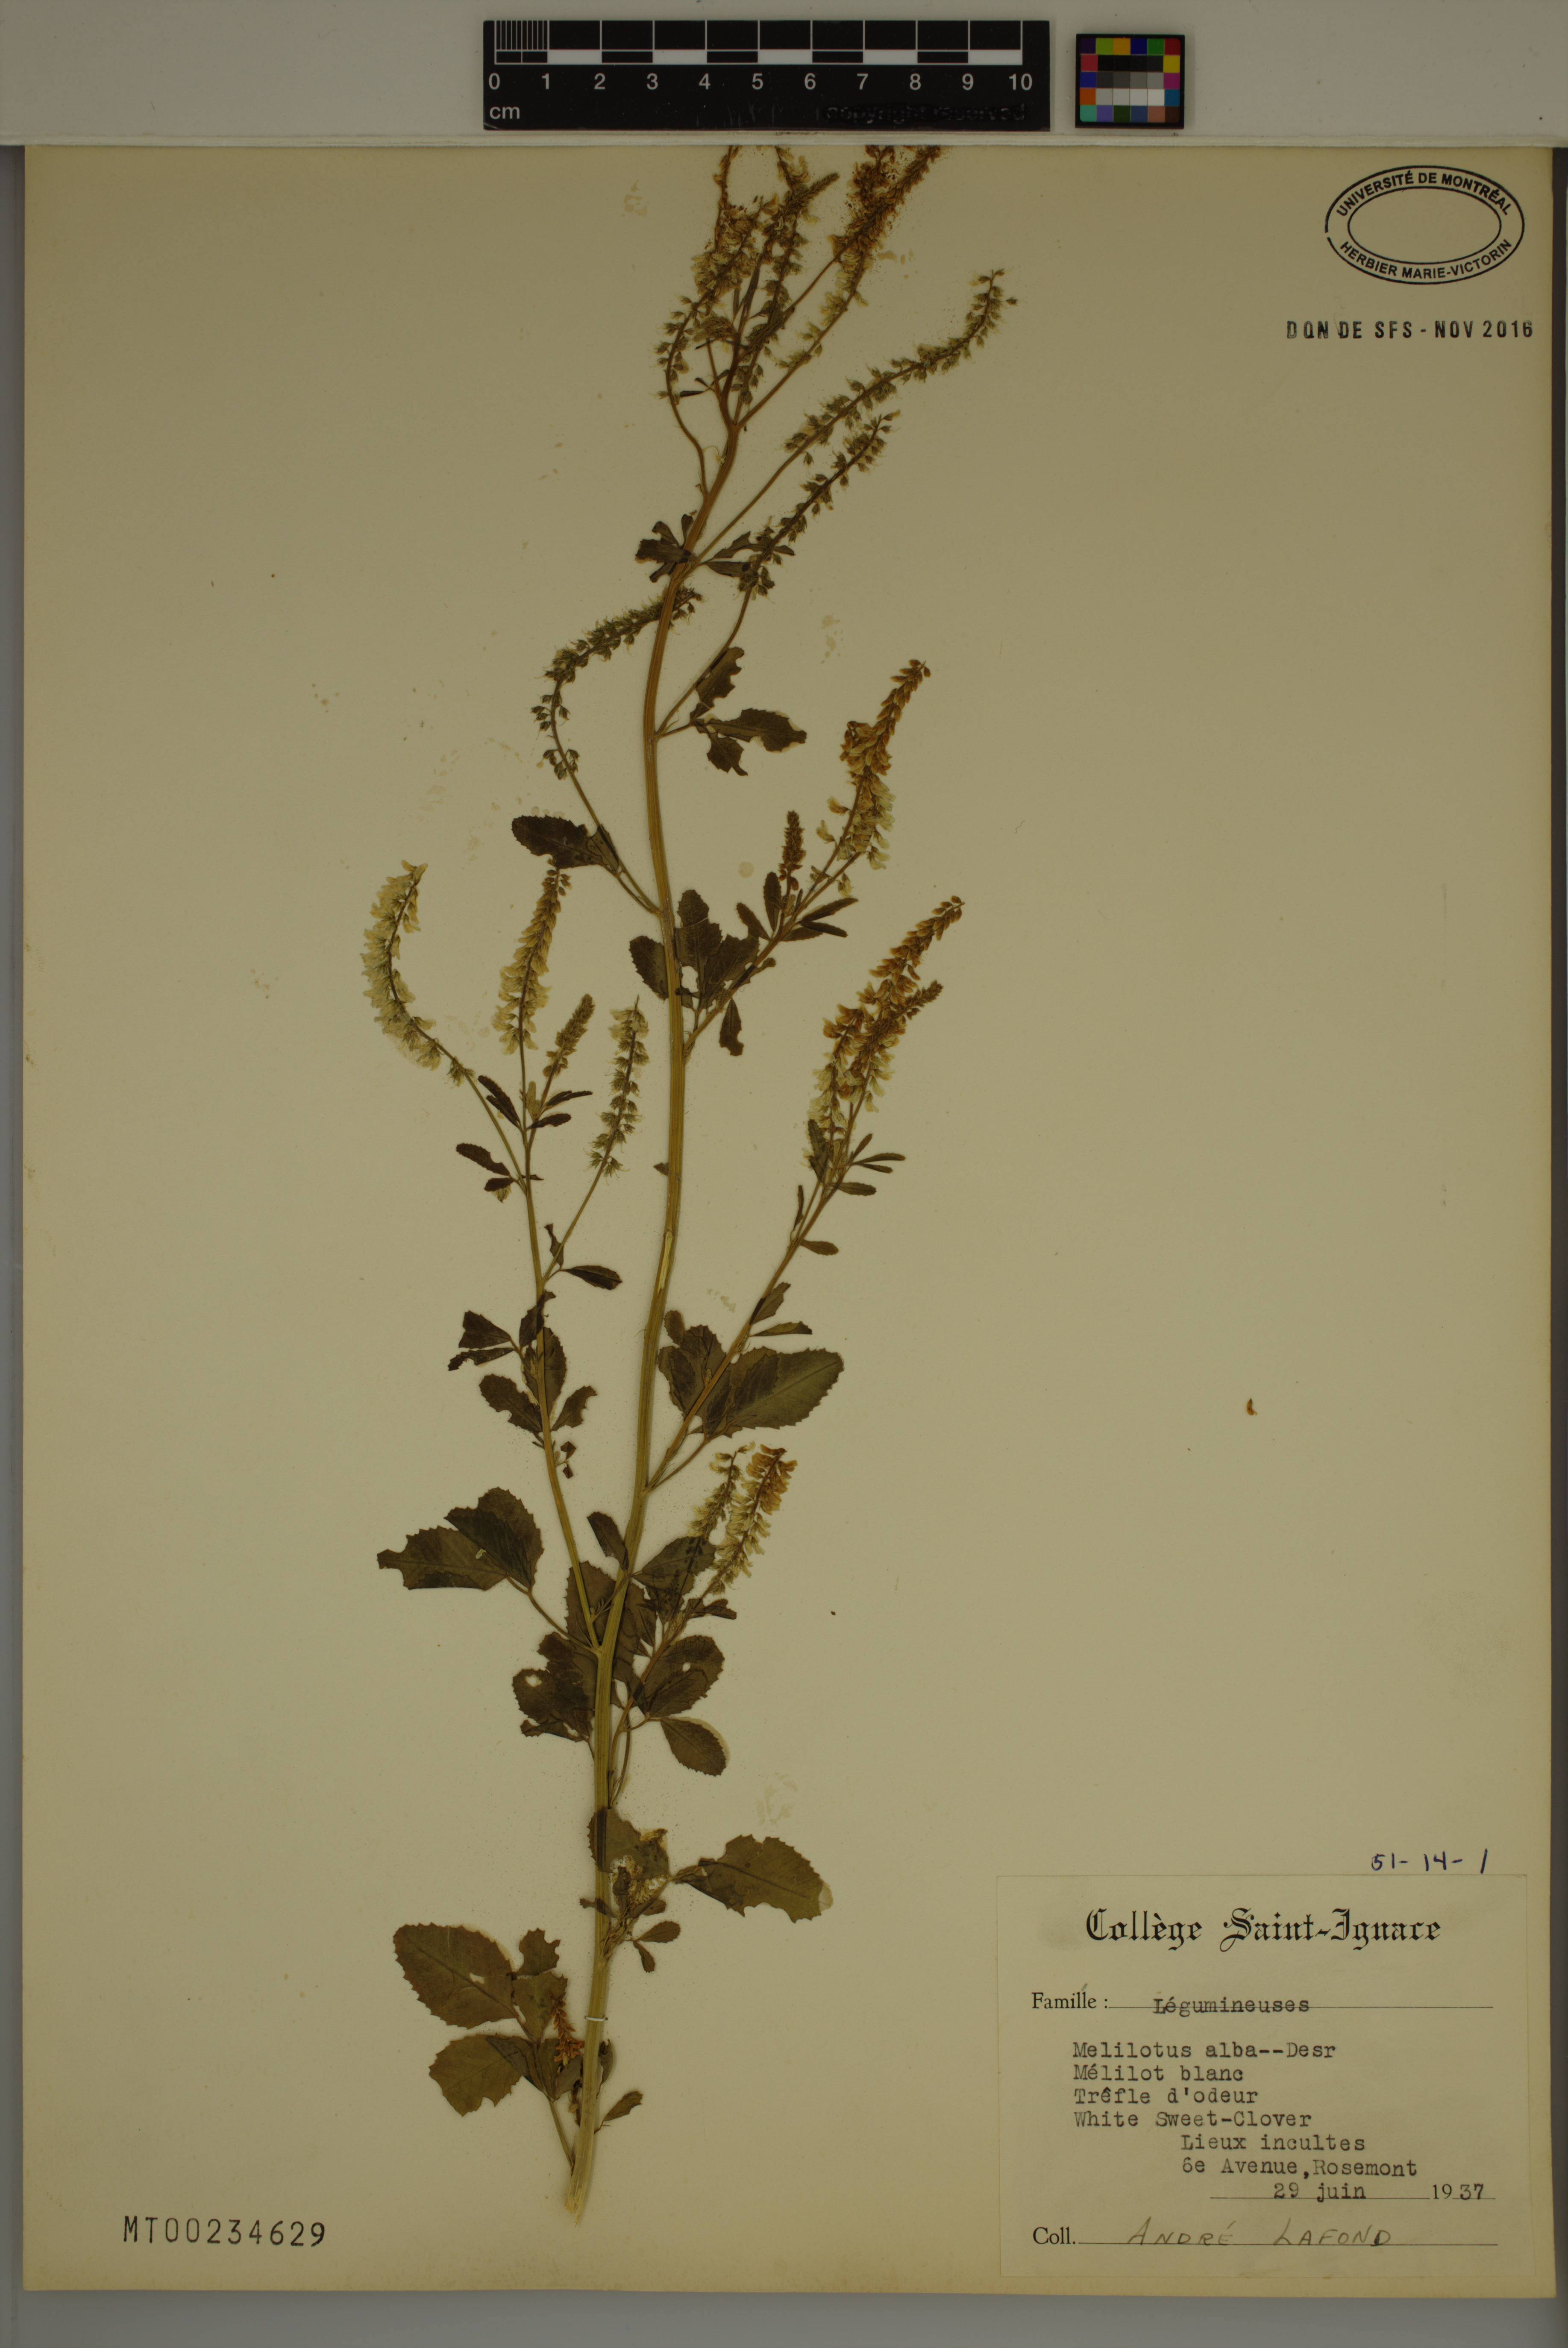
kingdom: Plantae
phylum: Tracheophyta
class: Magnoliopsida
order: Fabales
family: Fabaceae
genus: Melilotus
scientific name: Melilotus albus
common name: White melilot
